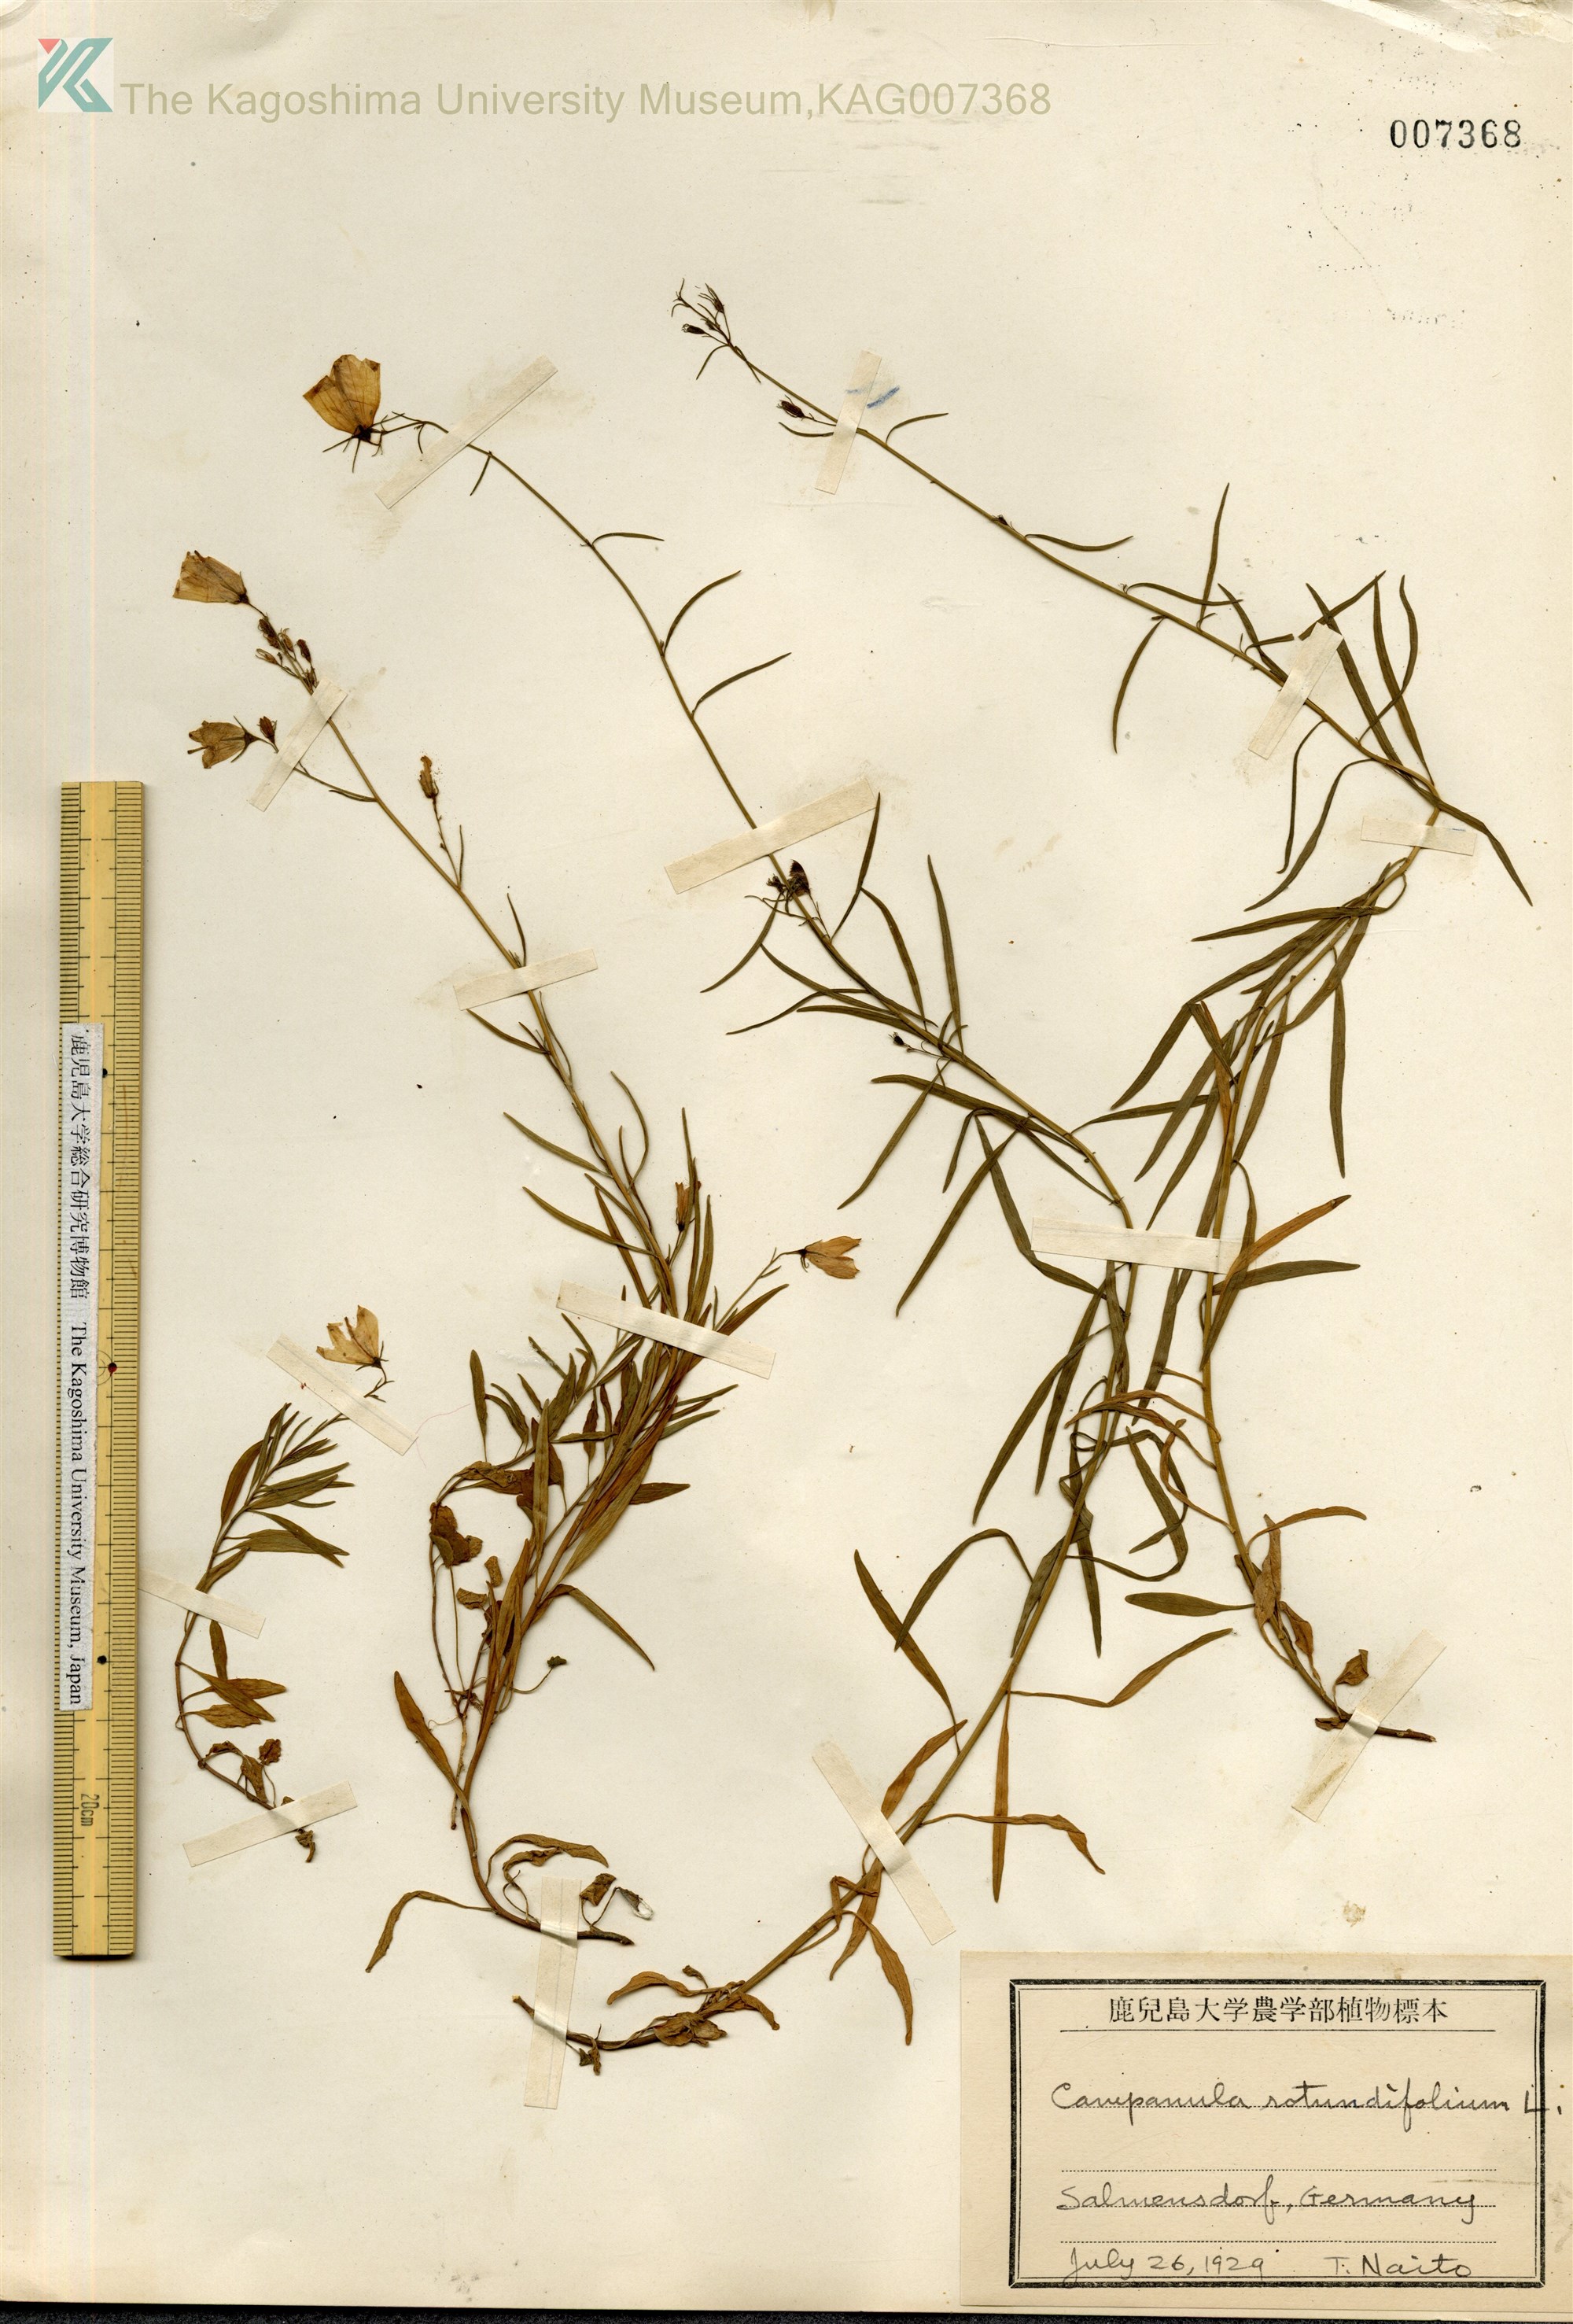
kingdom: Plantae
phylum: Tracheophyta
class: Magnoliopsida
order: Asterales
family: Campanulaceae
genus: Campanula
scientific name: Campanula rotundifolia
